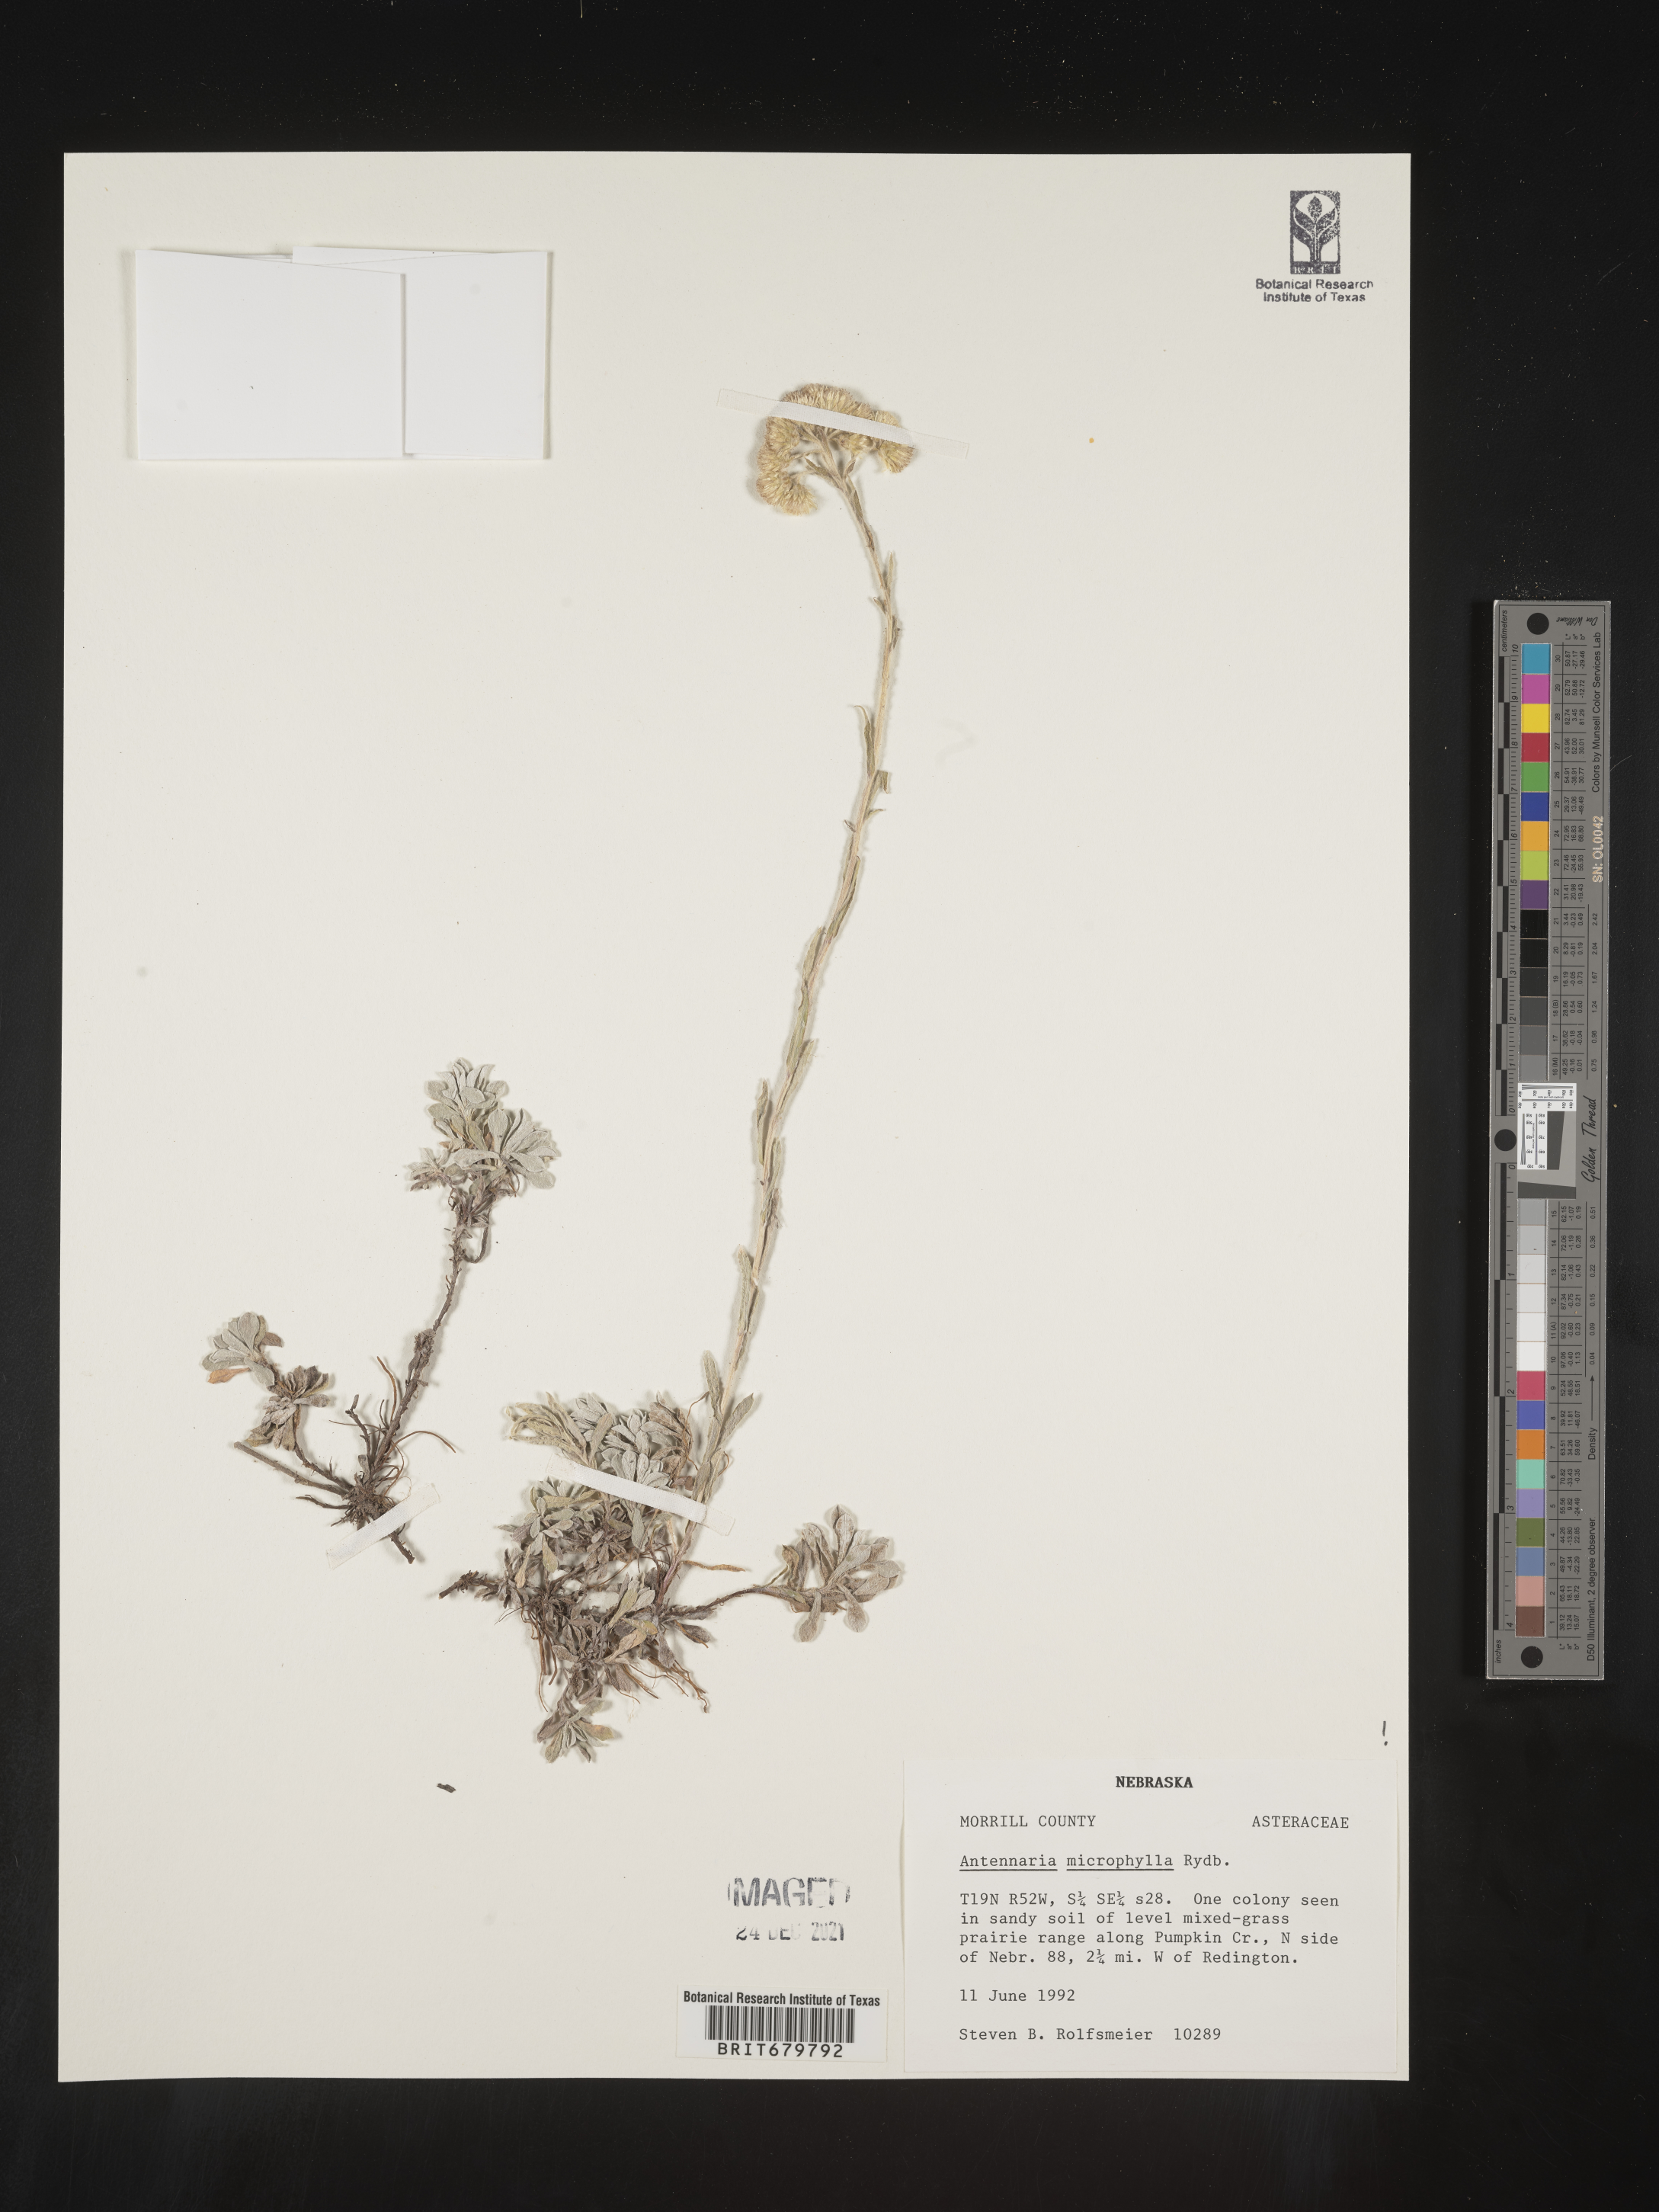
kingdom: Plantae
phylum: Tracheophyta
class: Magnoliopsida
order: Asterales
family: Asteraceae
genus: Antennaria
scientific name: Antennaria microphylla
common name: Littleleaf pussytoes
